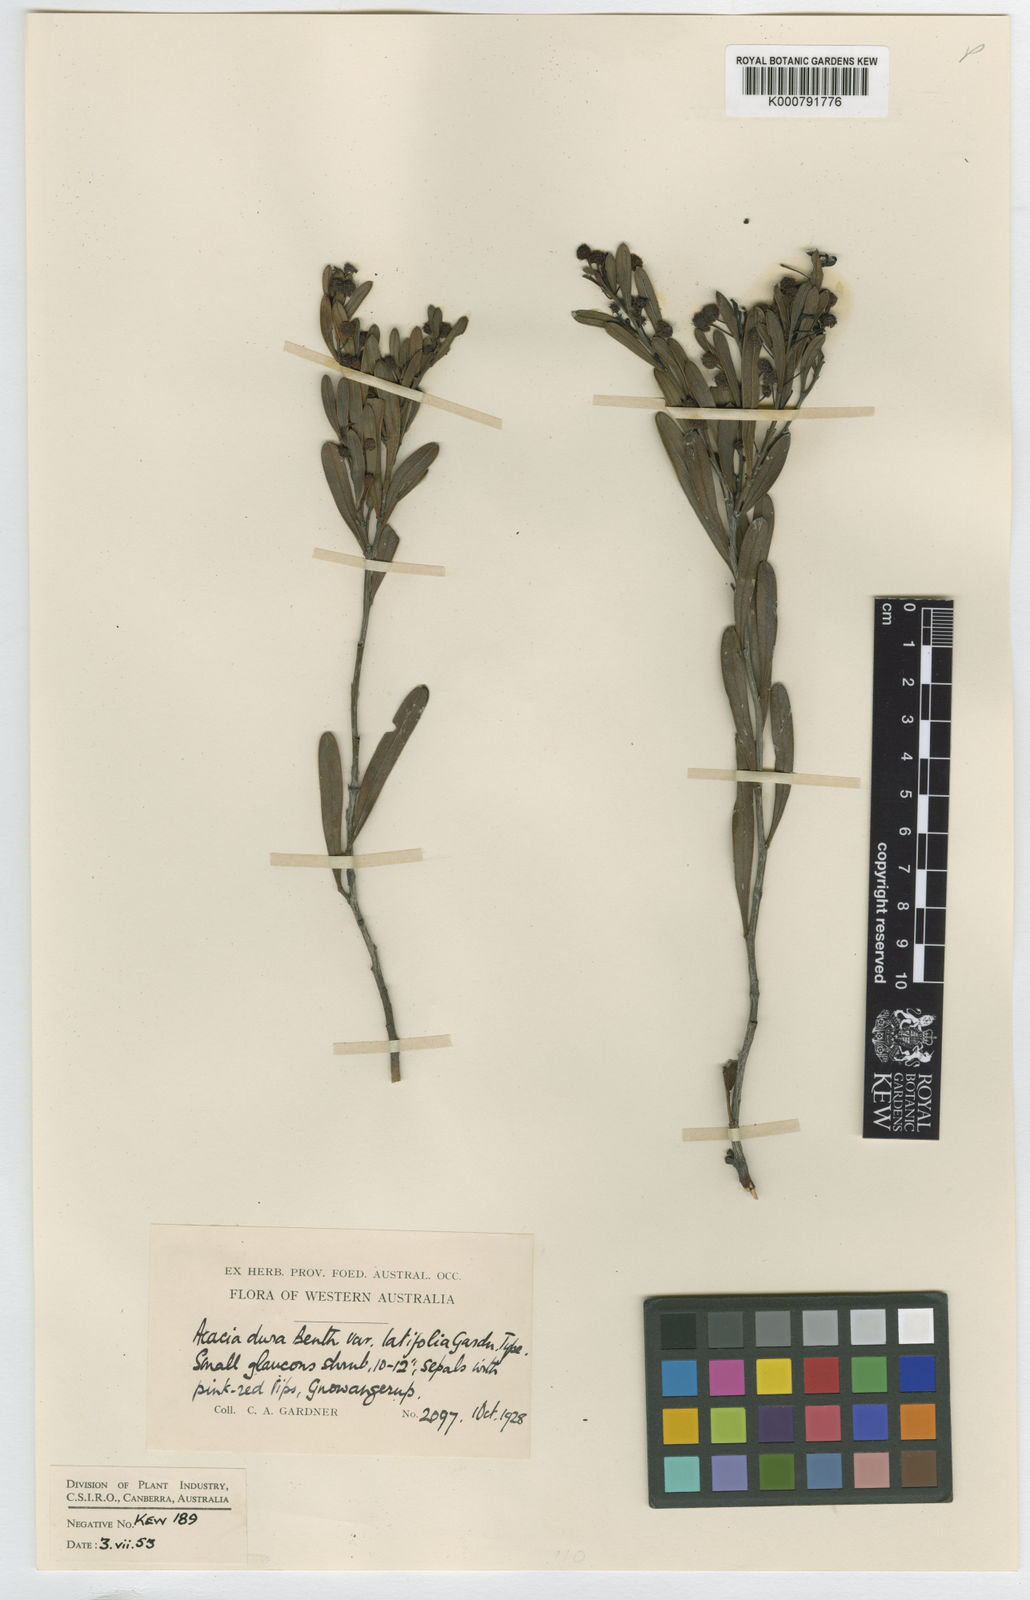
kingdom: Plantae
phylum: Tracheophyta
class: Magnoliopsida
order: Fabales
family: Fabaceae
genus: Acacia
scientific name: Acacia dura
